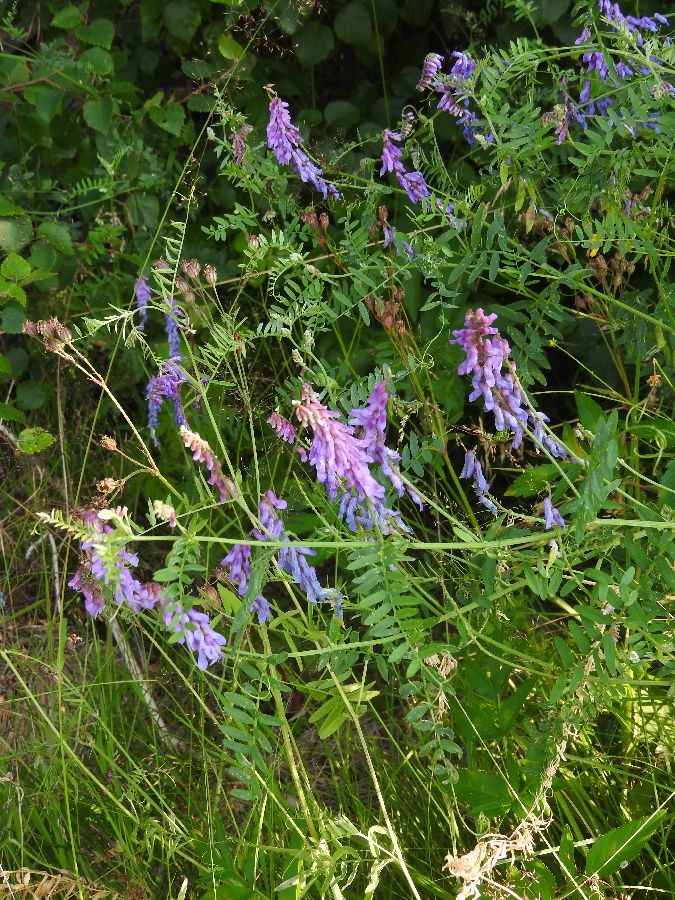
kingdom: Plantae
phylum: Tracheophyta
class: Magnoliopsida
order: Fabales
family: Fabaceae
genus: Vicia
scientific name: Vicia cracca
